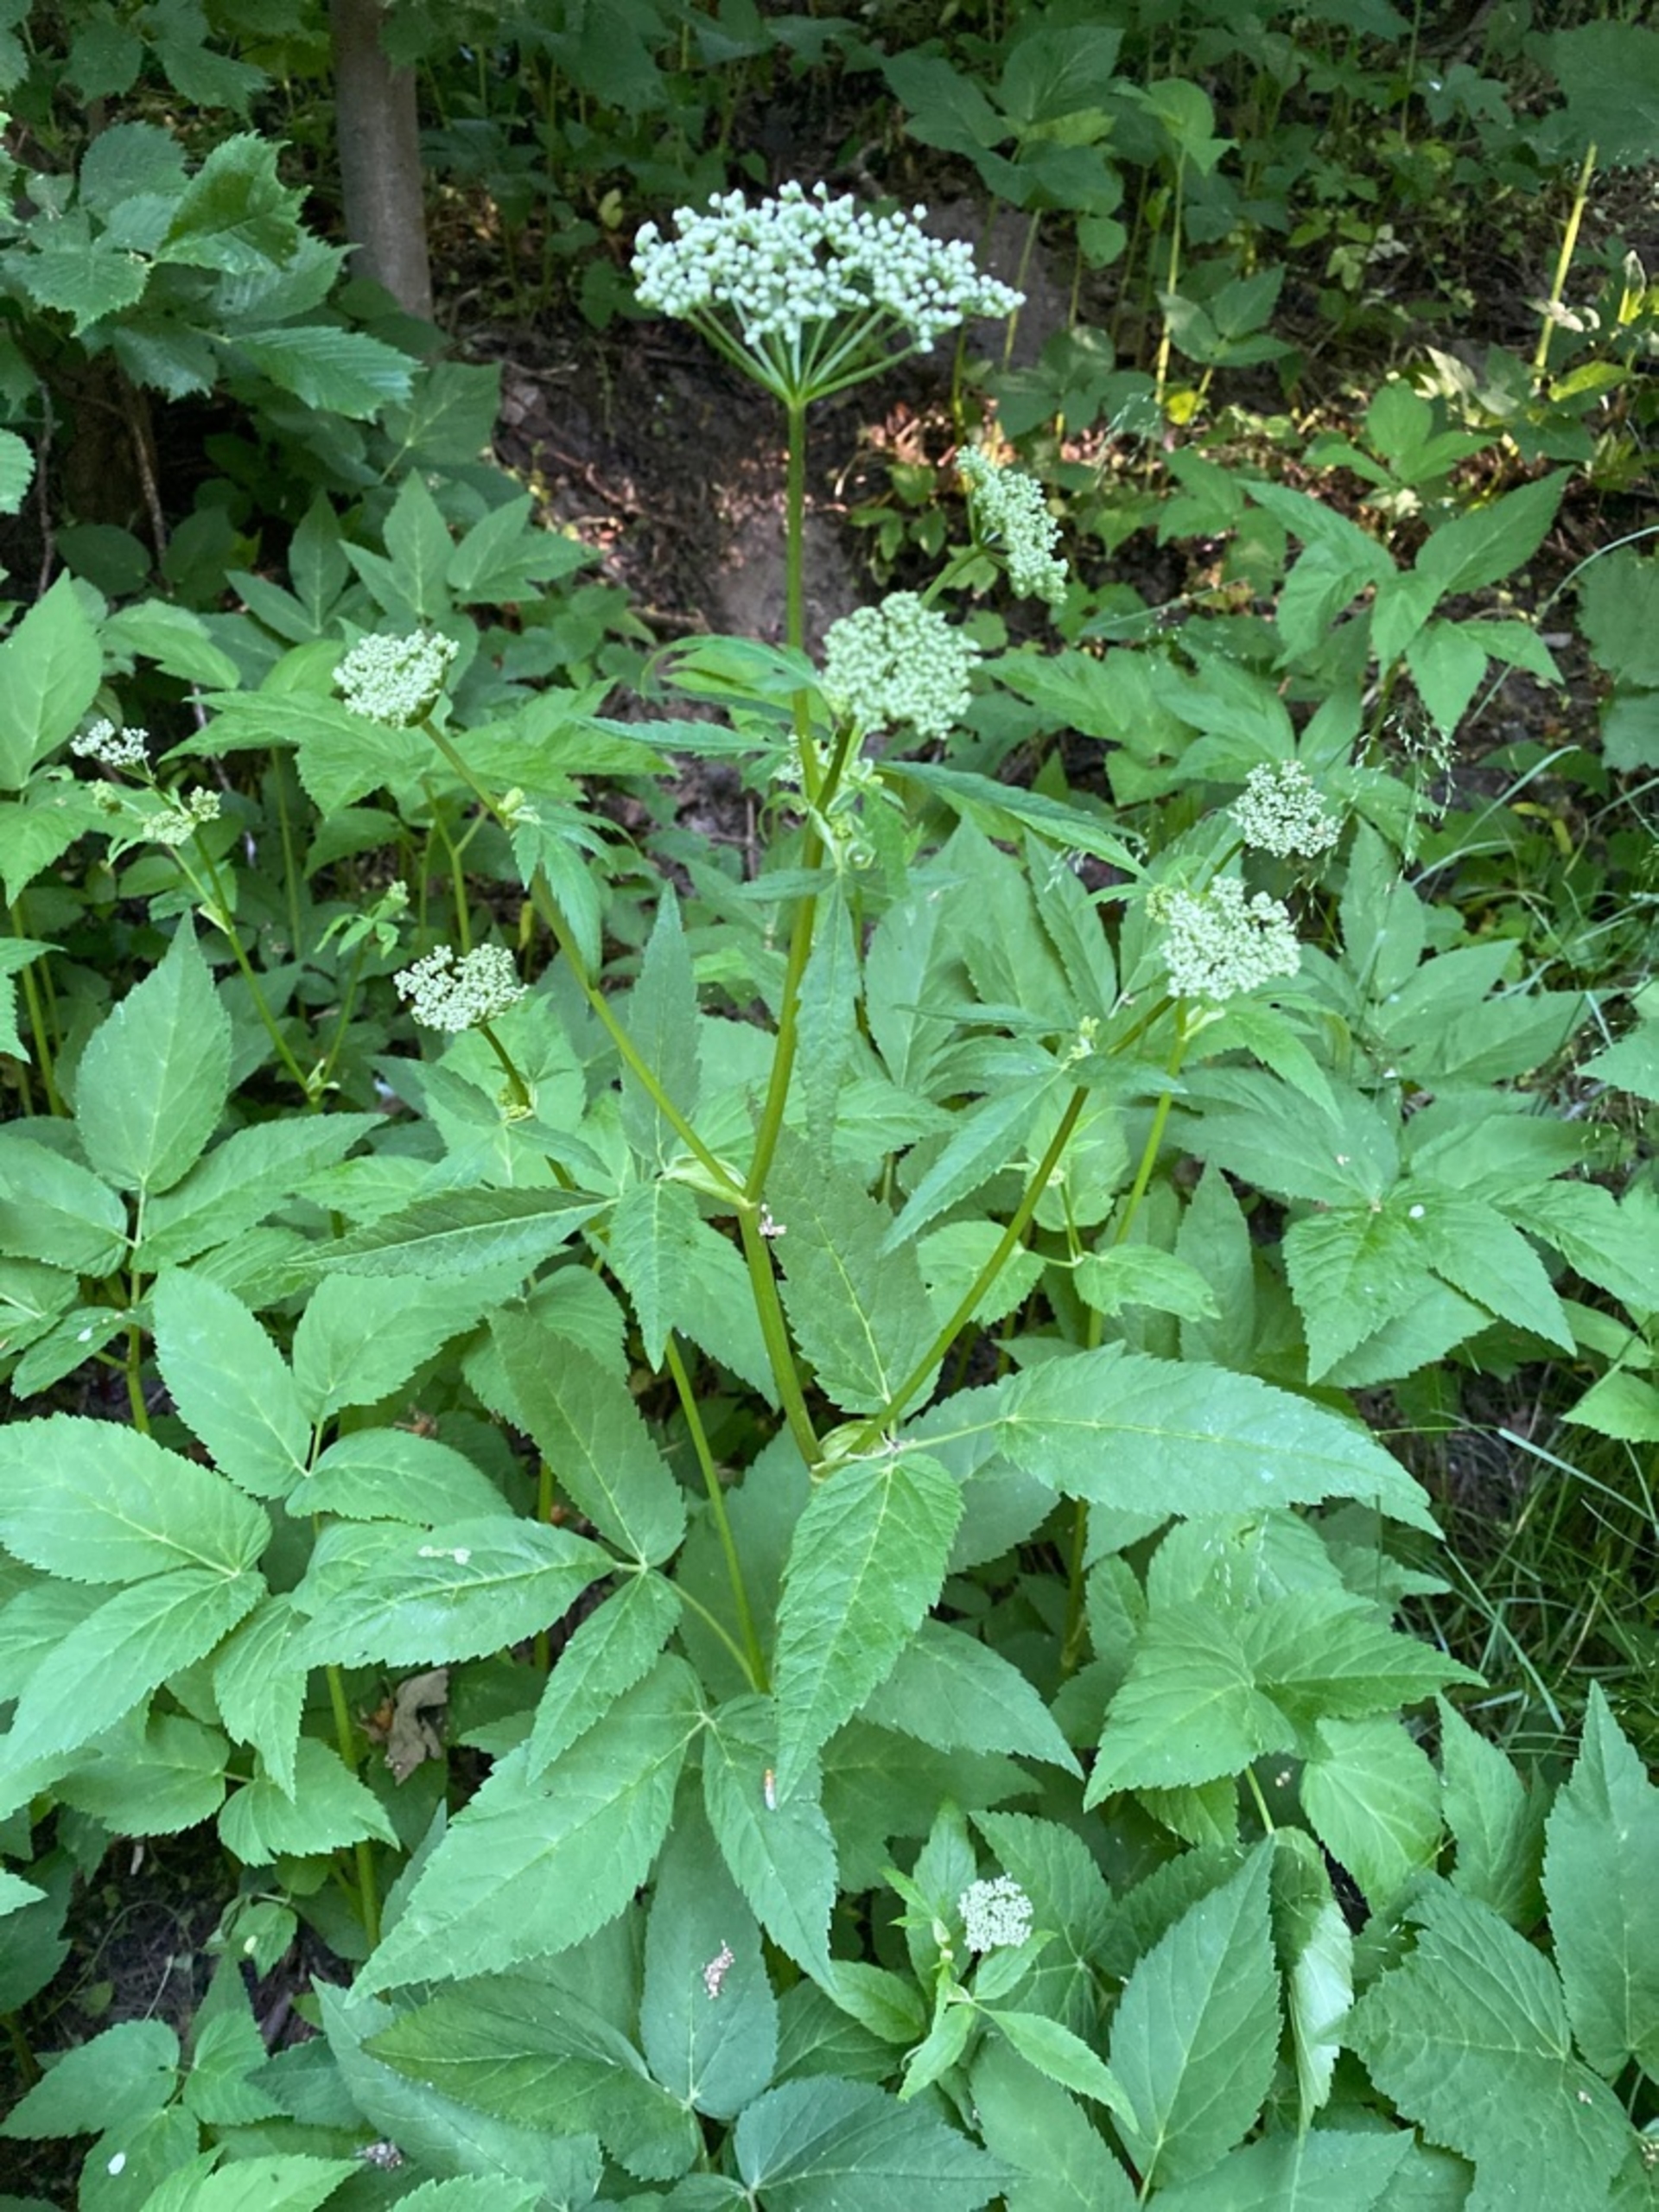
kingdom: Plantae
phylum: Tracheophyta
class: Magnoliopsida
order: Apiales
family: Apiaceae
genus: Aegopodium
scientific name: Aegopodium podagraria
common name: Skvalderkål
